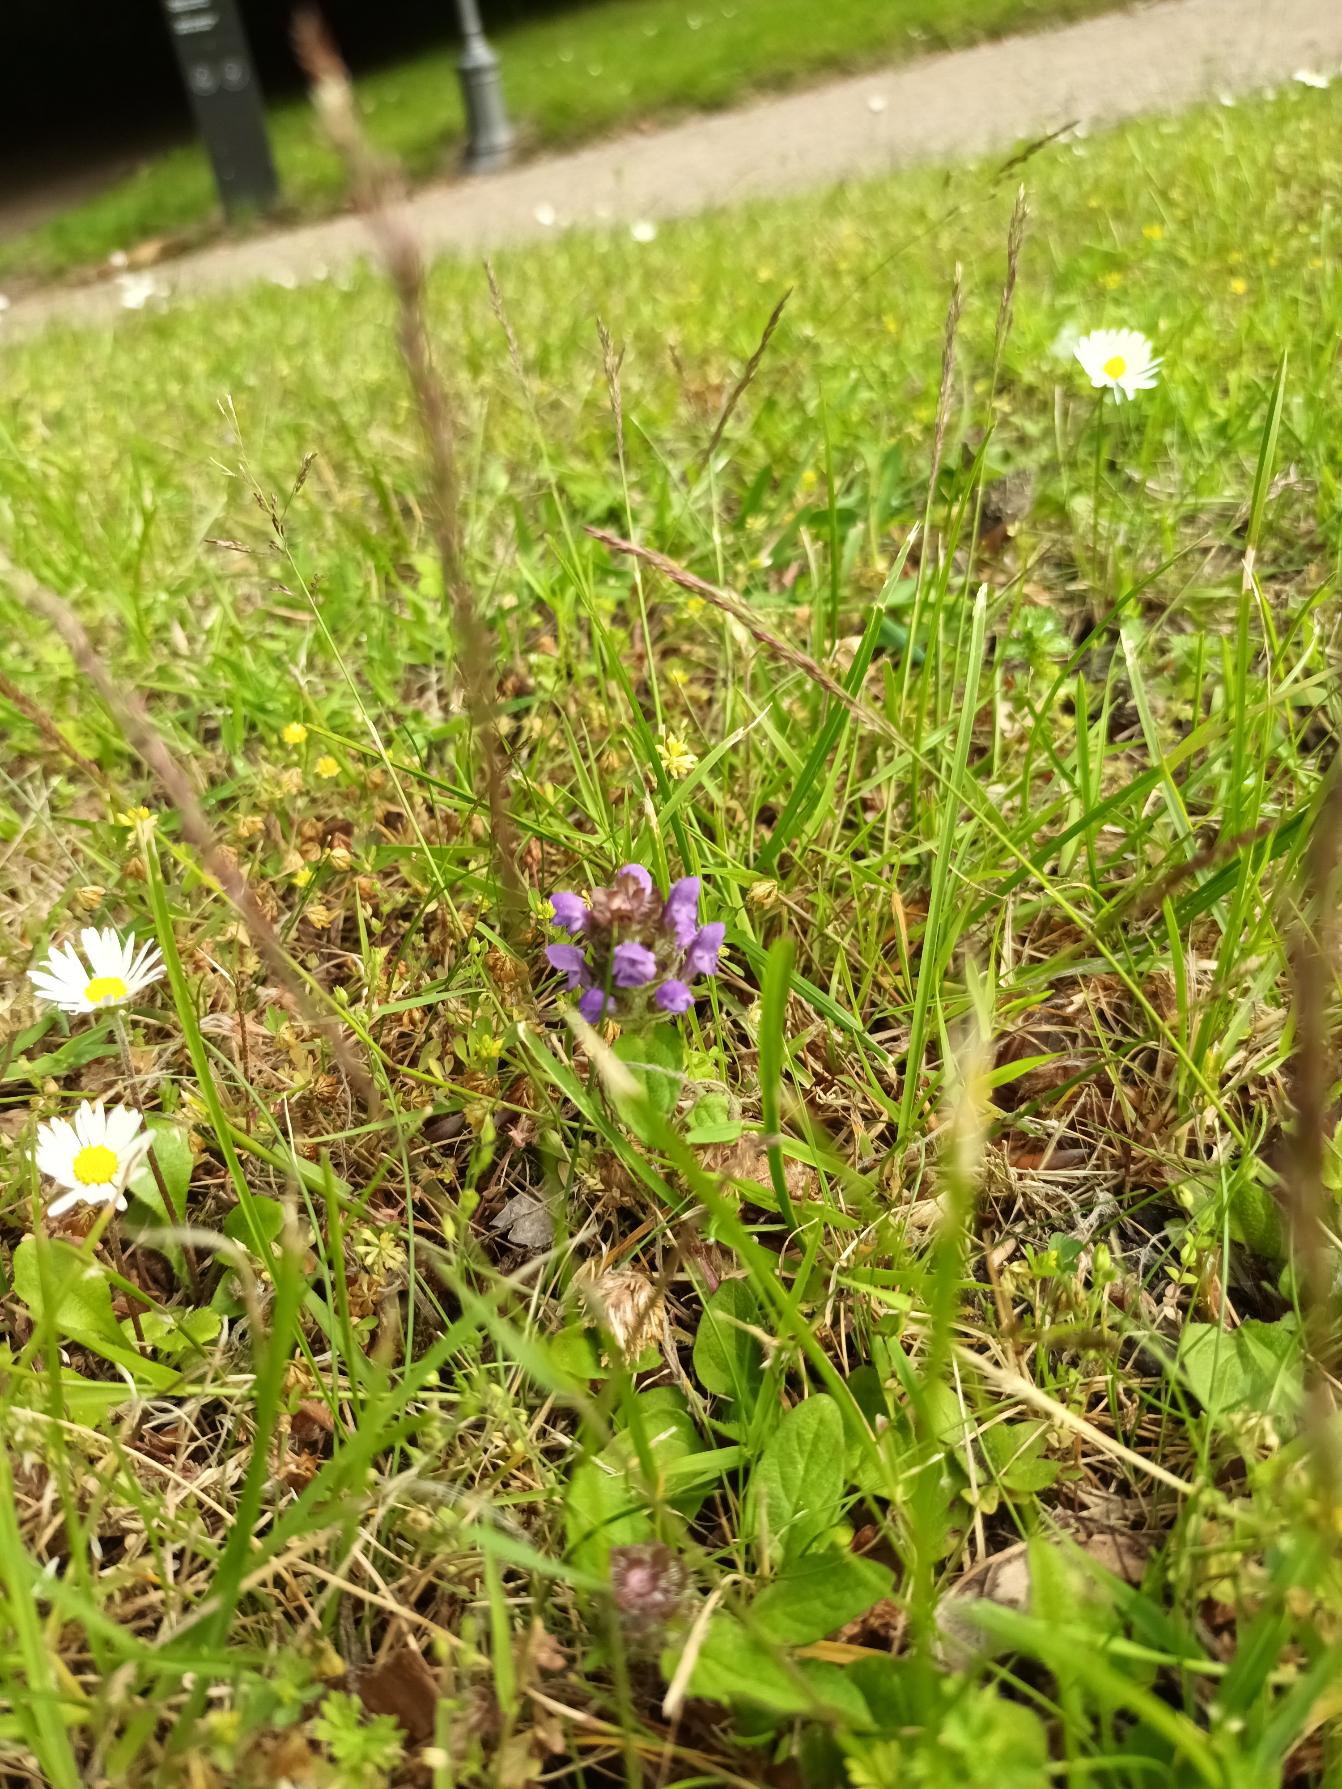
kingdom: Plantae
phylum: Tracheophyta
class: Magnoliopsida
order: Lamiales
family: Lamiaceae
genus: Prunella
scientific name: Prunella vulgaris
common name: Almindelig brunelle
